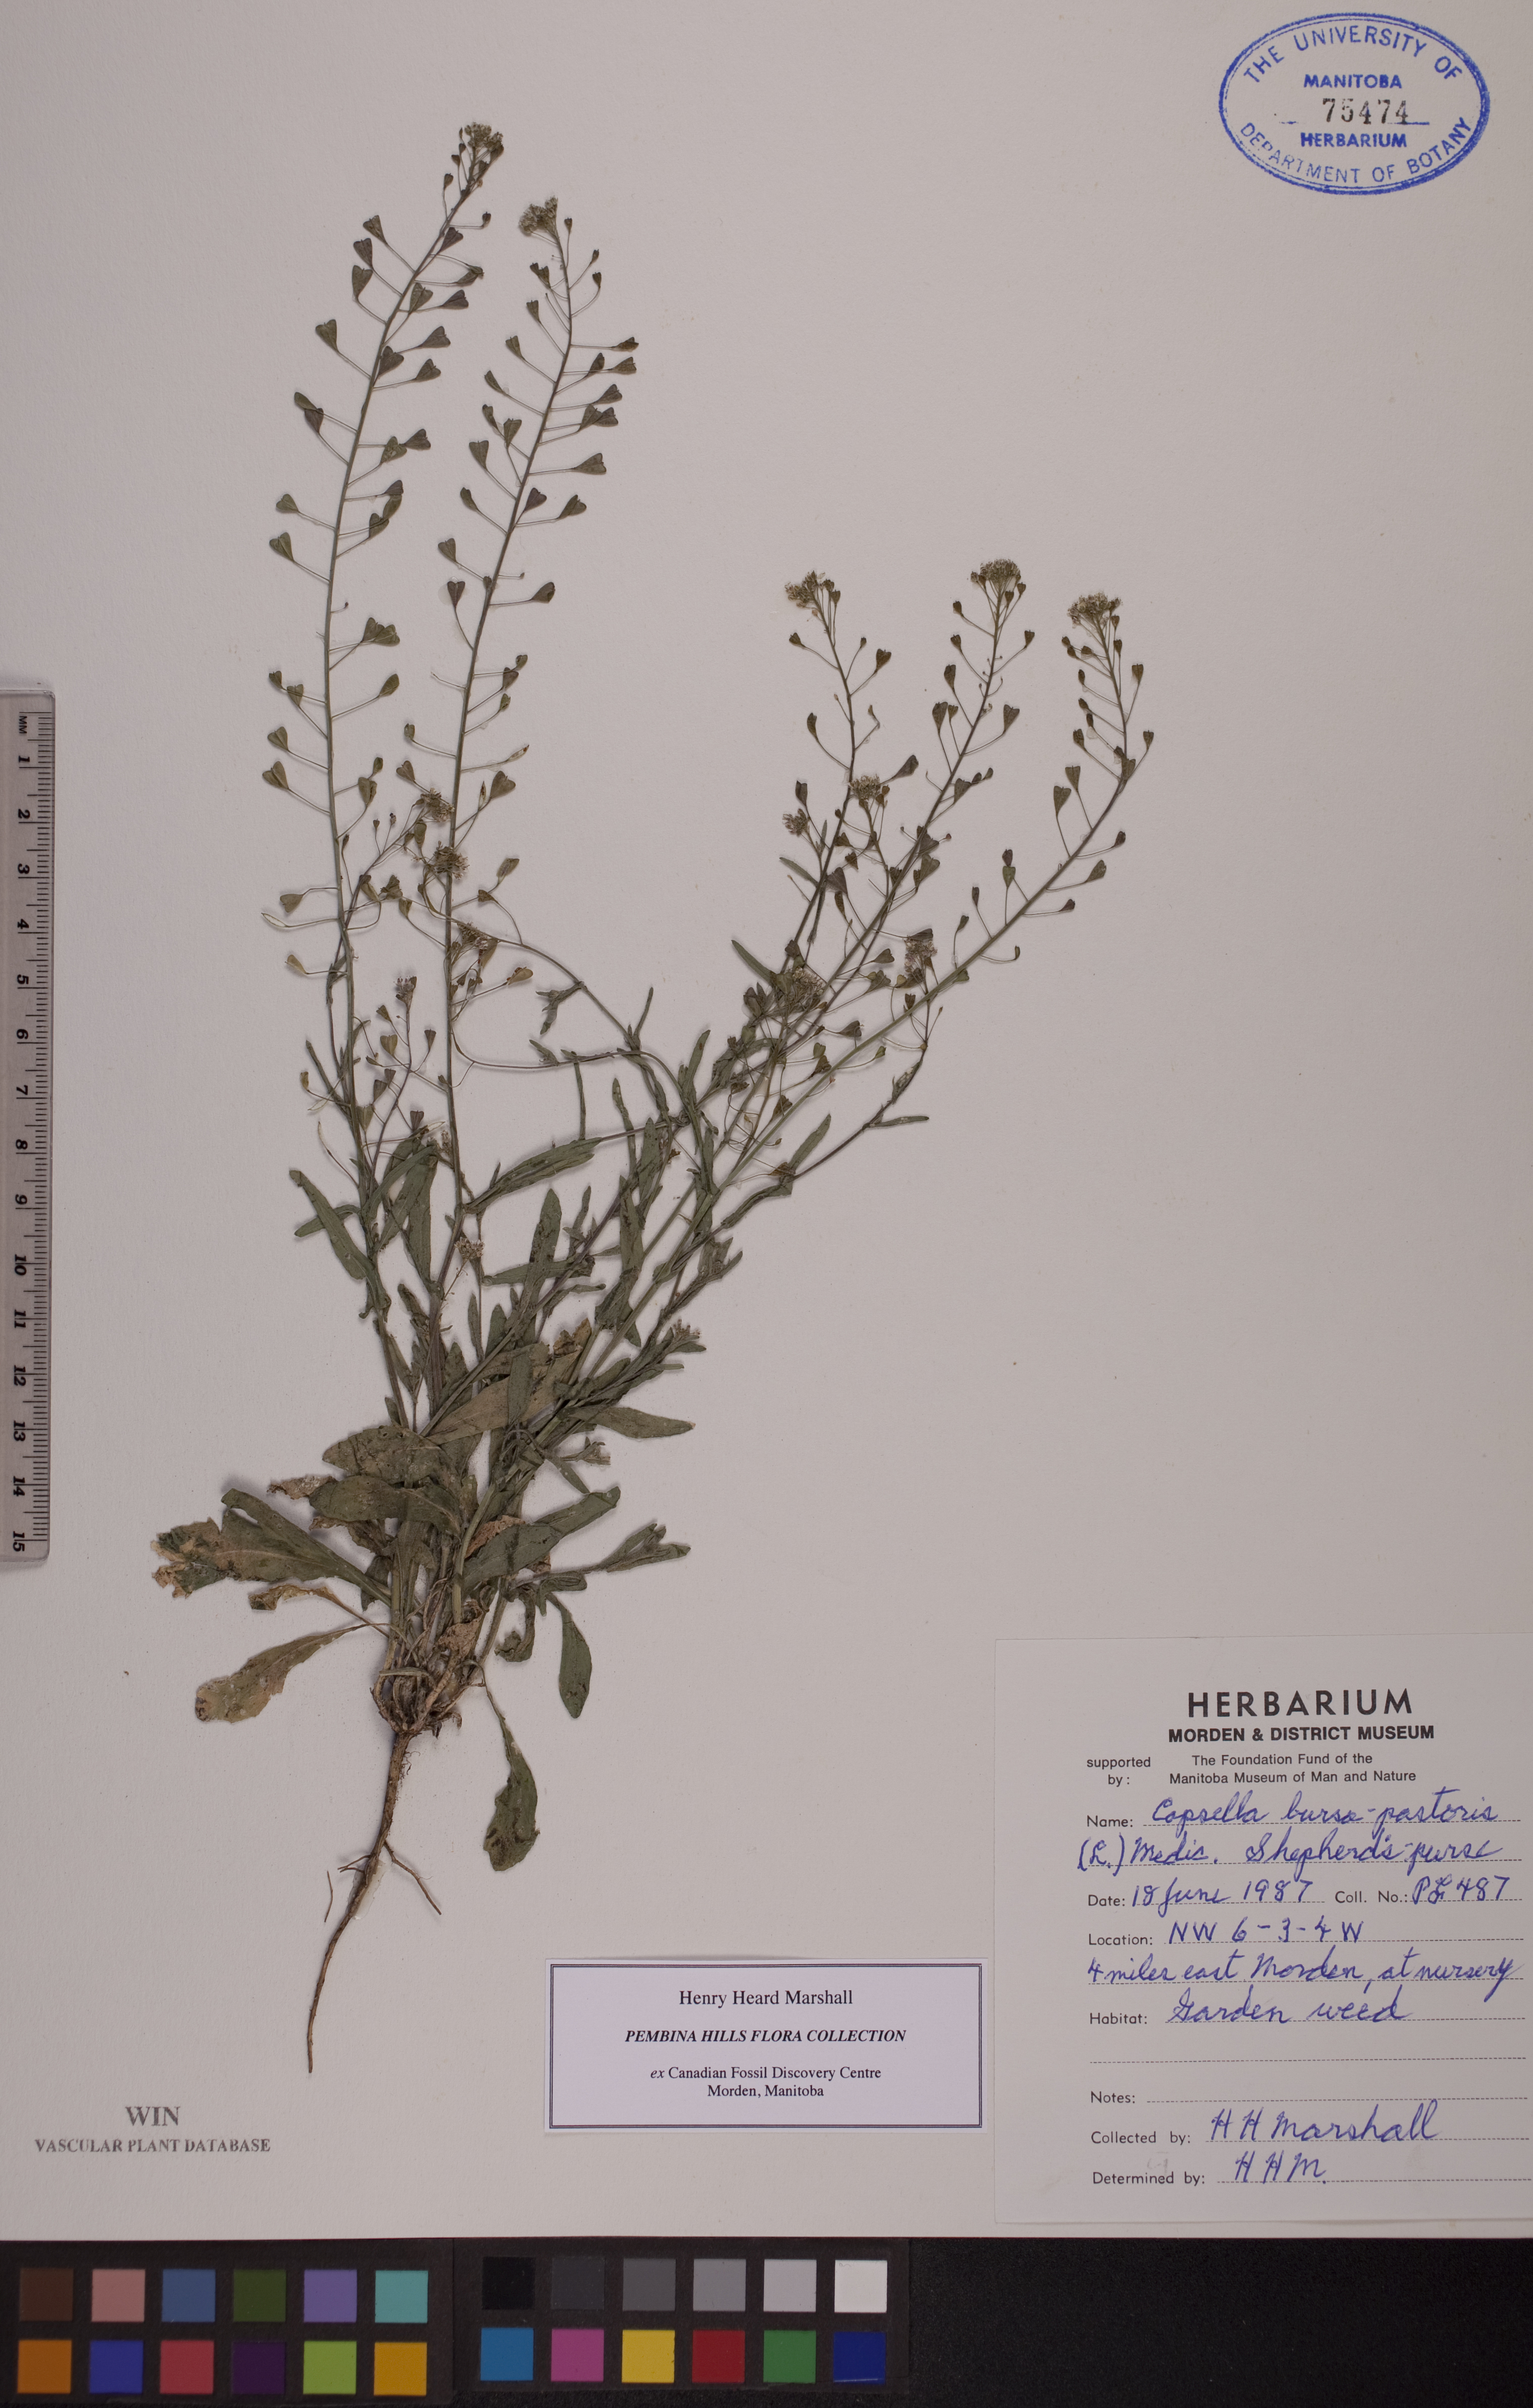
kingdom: Plantae
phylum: Tracheophyta
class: Magnoliopsida
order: Brassicales
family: Brassicaceae
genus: Capsella
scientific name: Capsella bursa-pastoris
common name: Shepherd's purse
